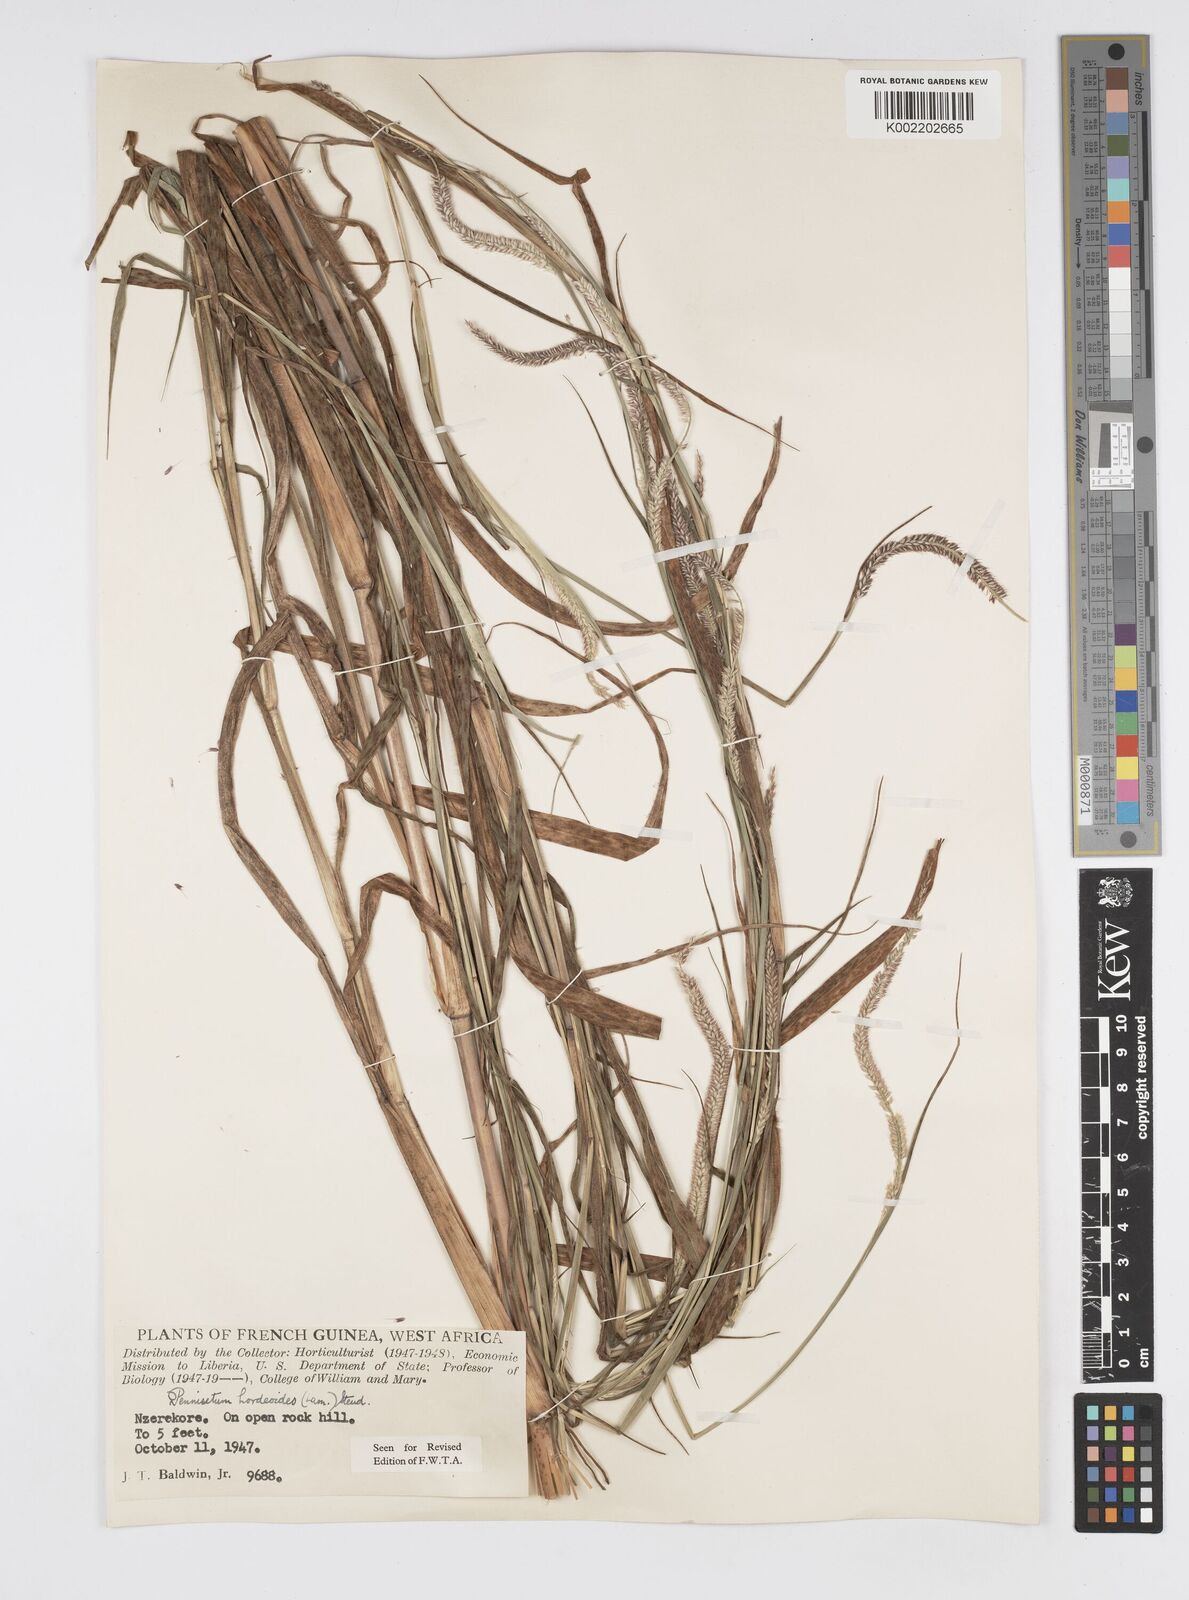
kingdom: Plantae
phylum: Tracheophyta
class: Liliopsida
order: Poales
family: Poaceae
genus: Cenchrus
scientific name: Cenchrus hordeoides
